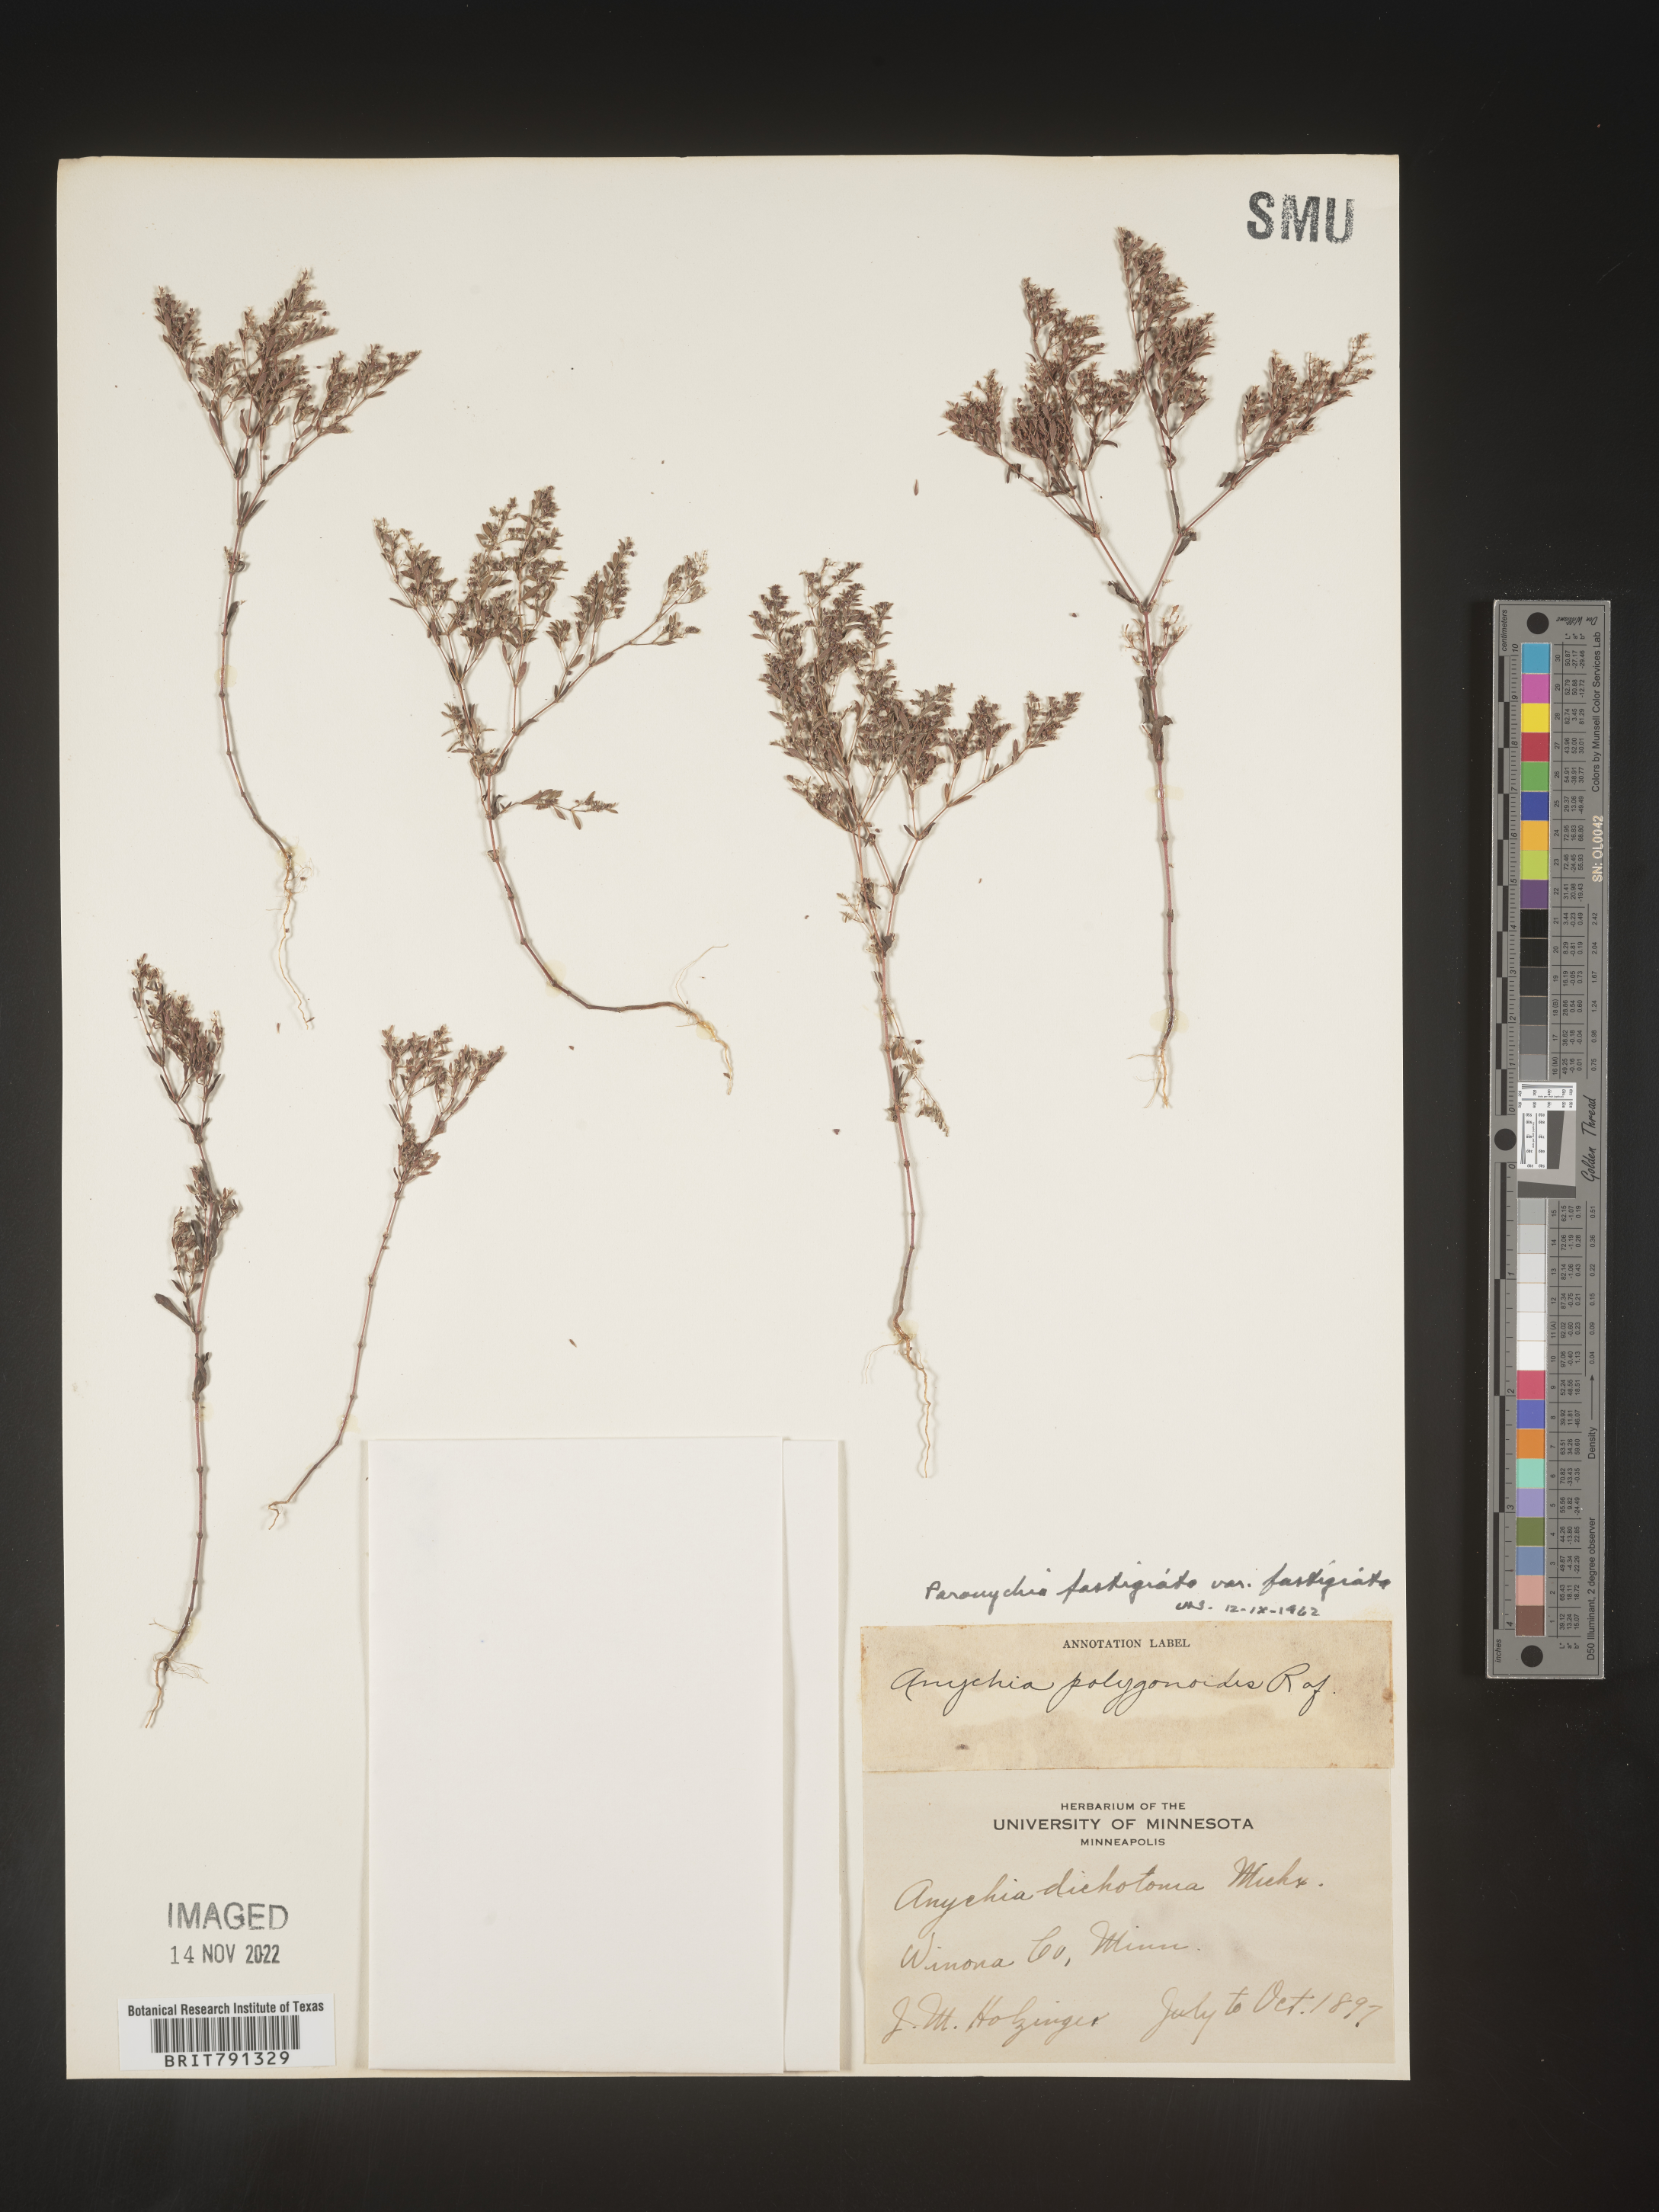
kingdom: Plantae
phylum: Tracheophyta
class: Magnoliopsida
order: Caryophyllales
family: Caryophyllaceae
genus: Paronychia
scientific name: Paronychia fastigiata
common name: Branching forked whitlow-wort
